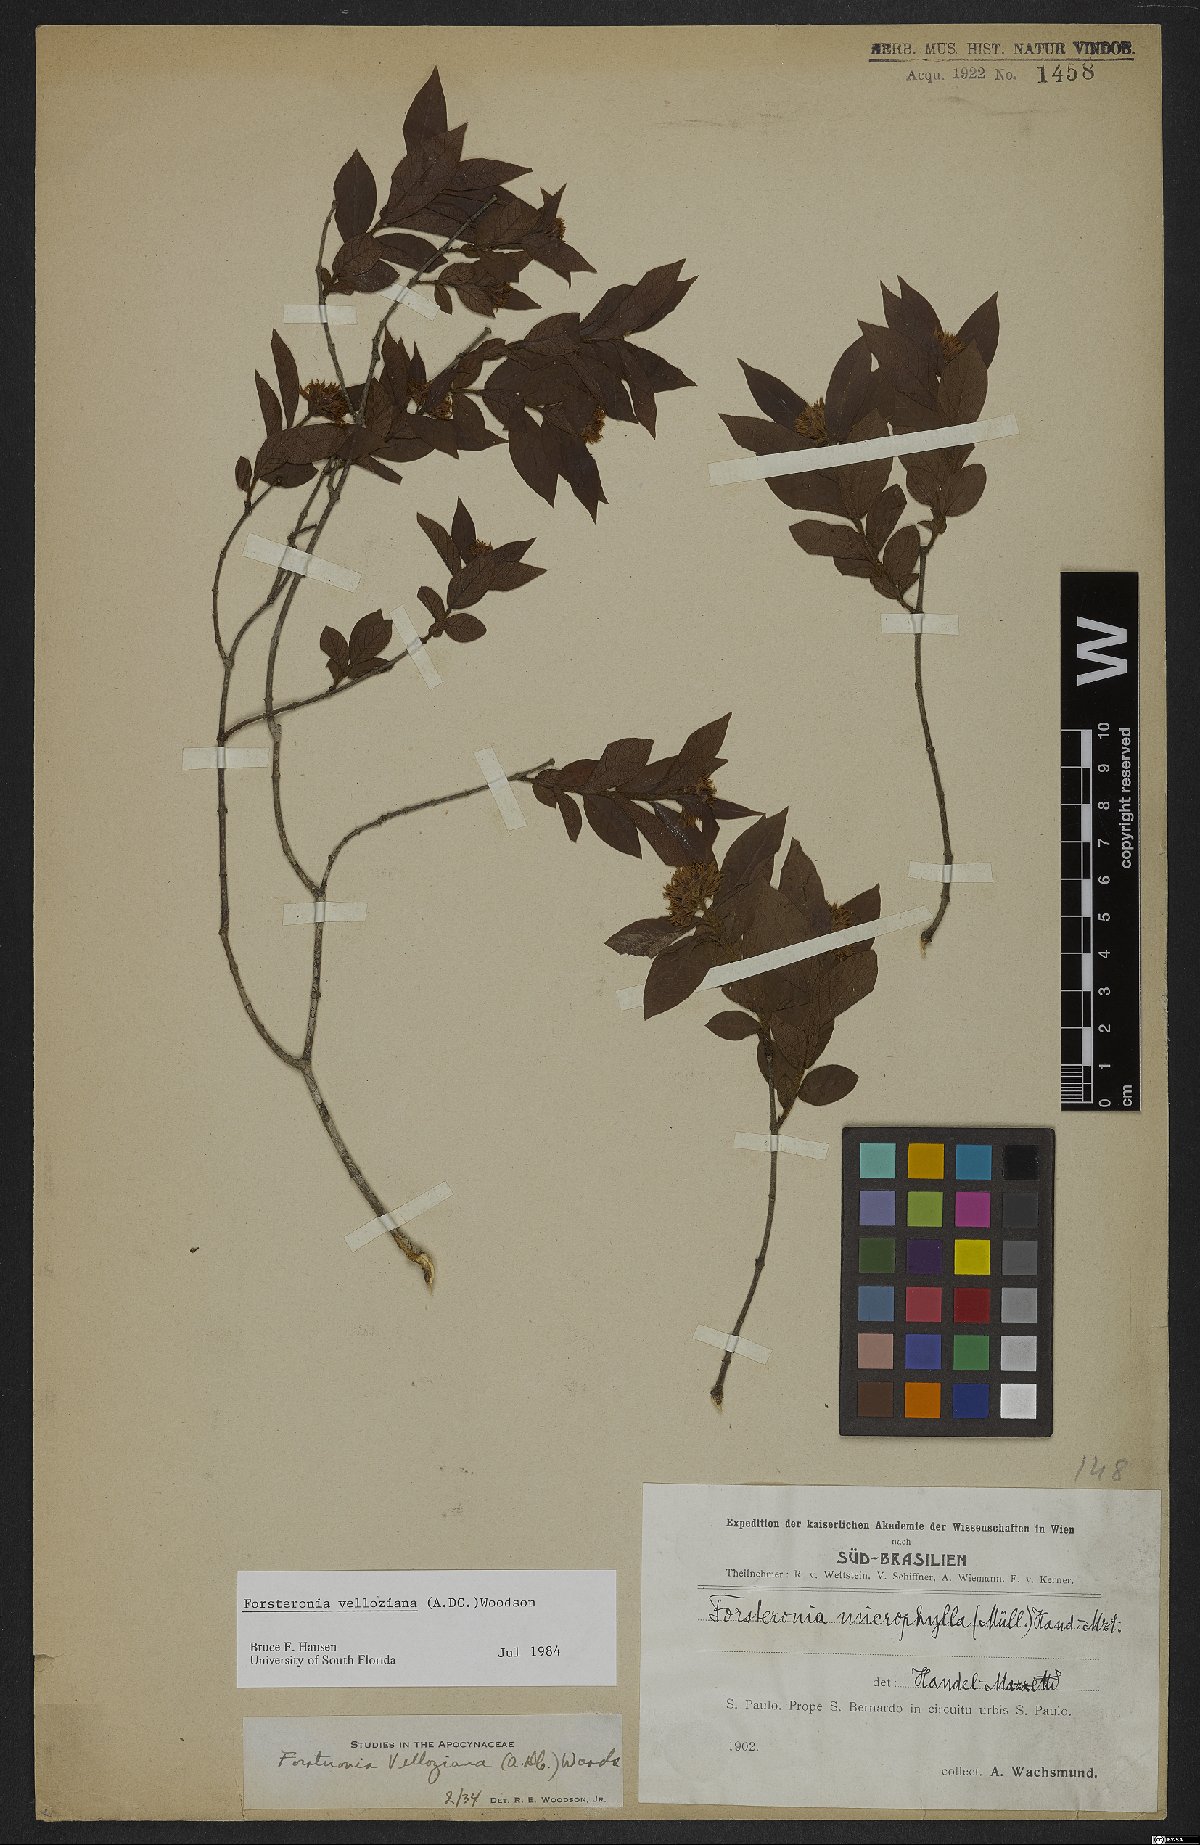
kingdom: Plantae
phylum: Tracheophyta
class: Magnoliopsida
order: Gentianales
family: Apocynaceae
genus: Forsteronia
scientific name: Forsteronia velloziana
